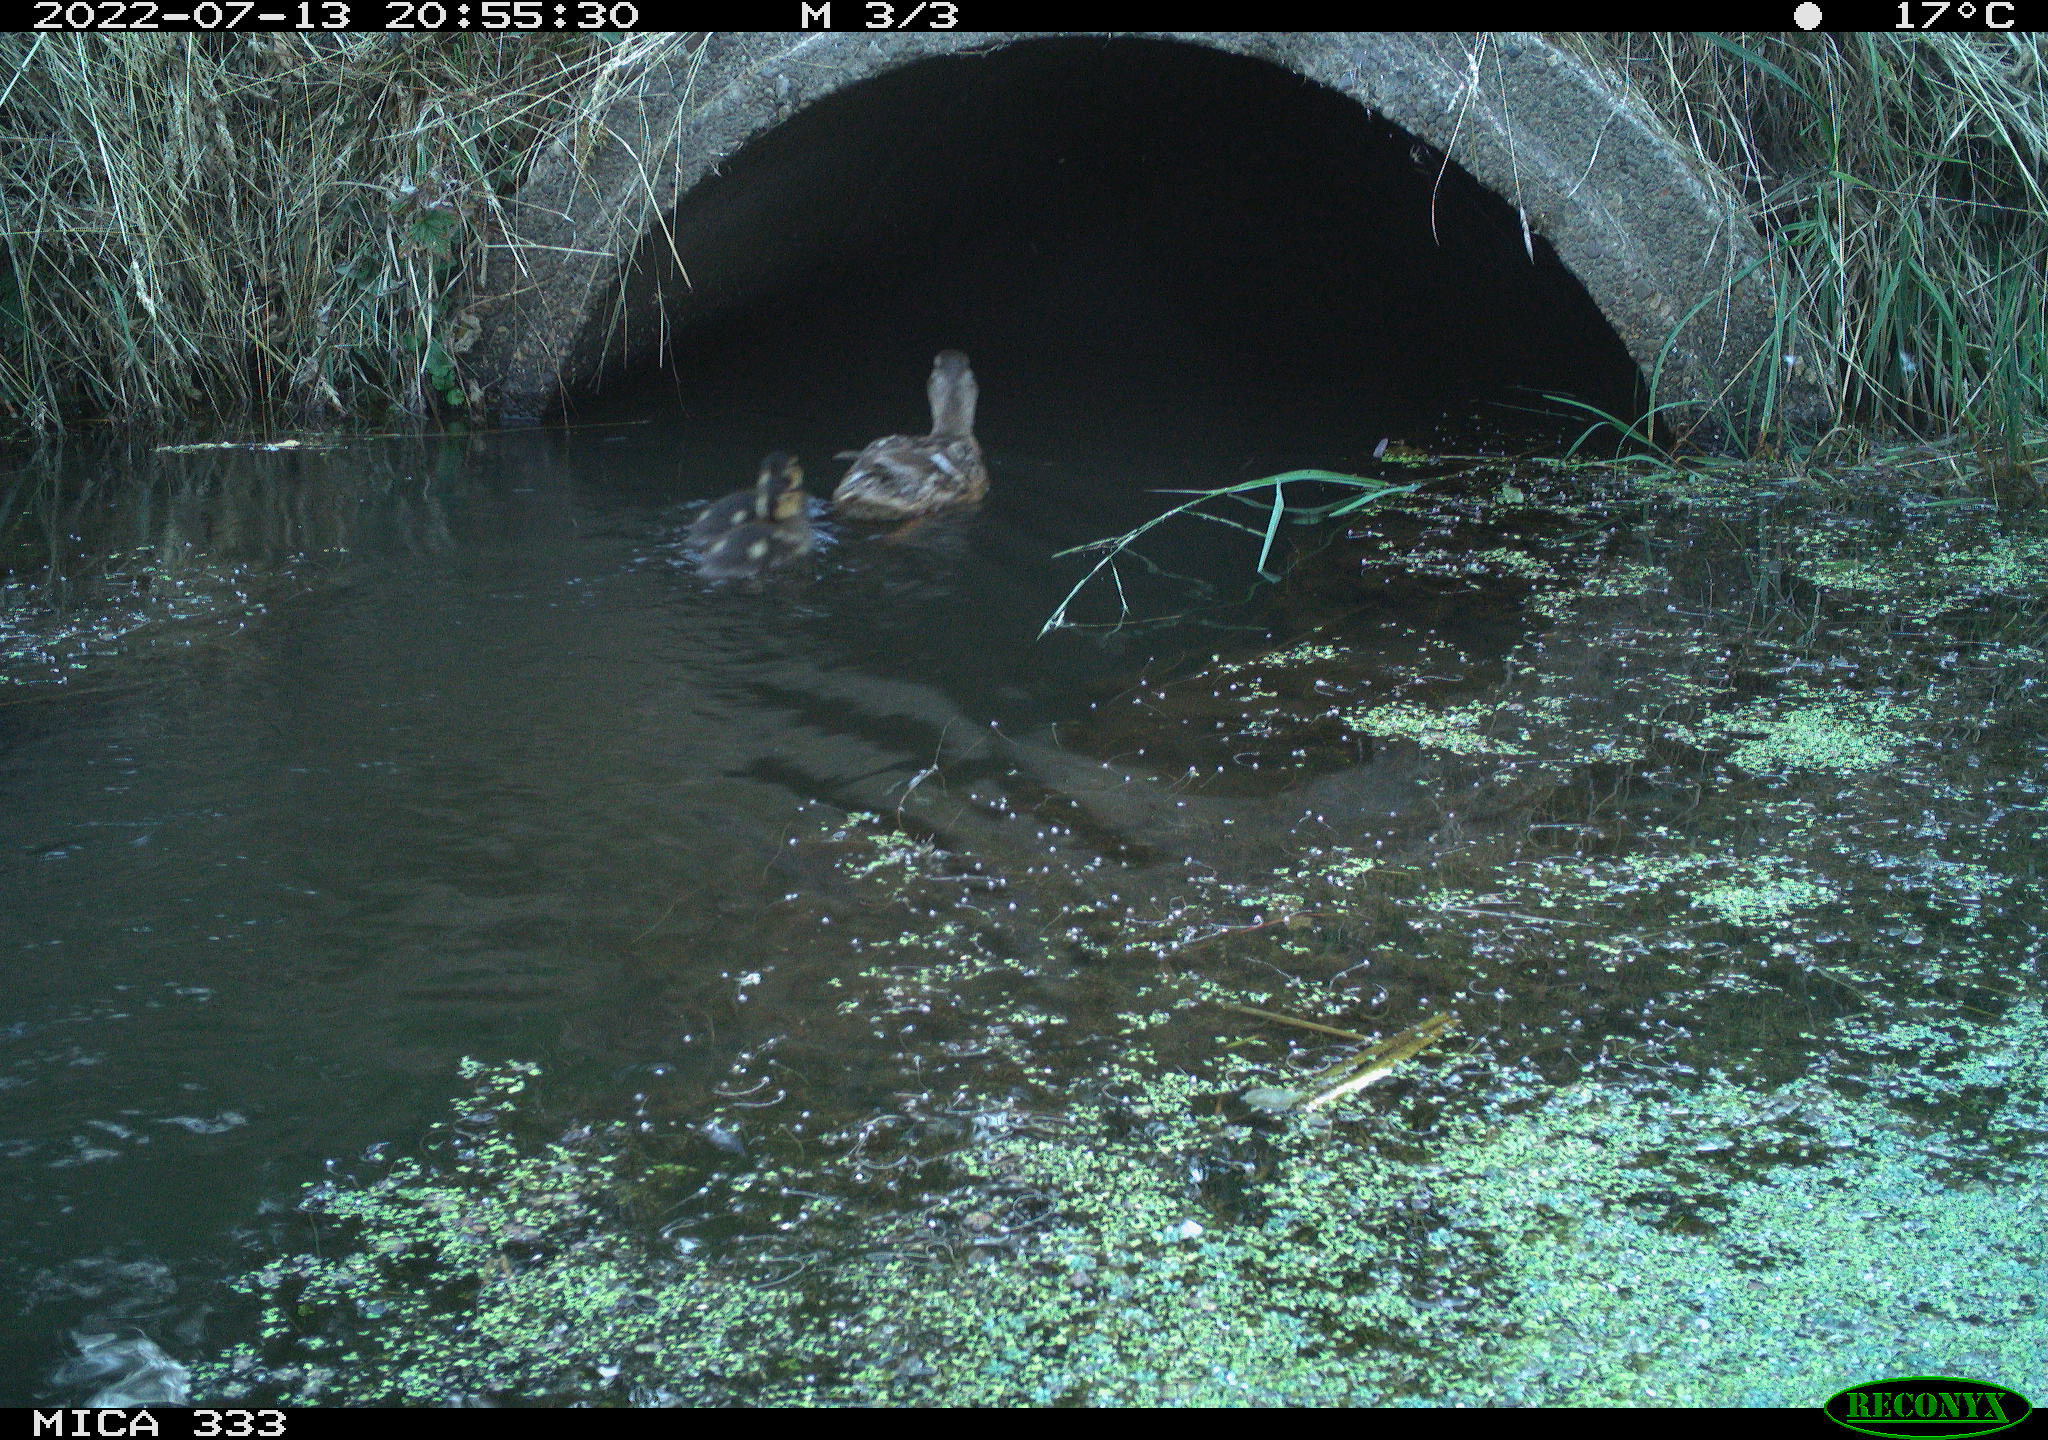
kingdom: Animalia
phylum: Chordata
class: Aves
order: Anseriformes
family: Anatidae
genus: Anas
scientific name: Anas platyrhynchos
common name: Mallard
